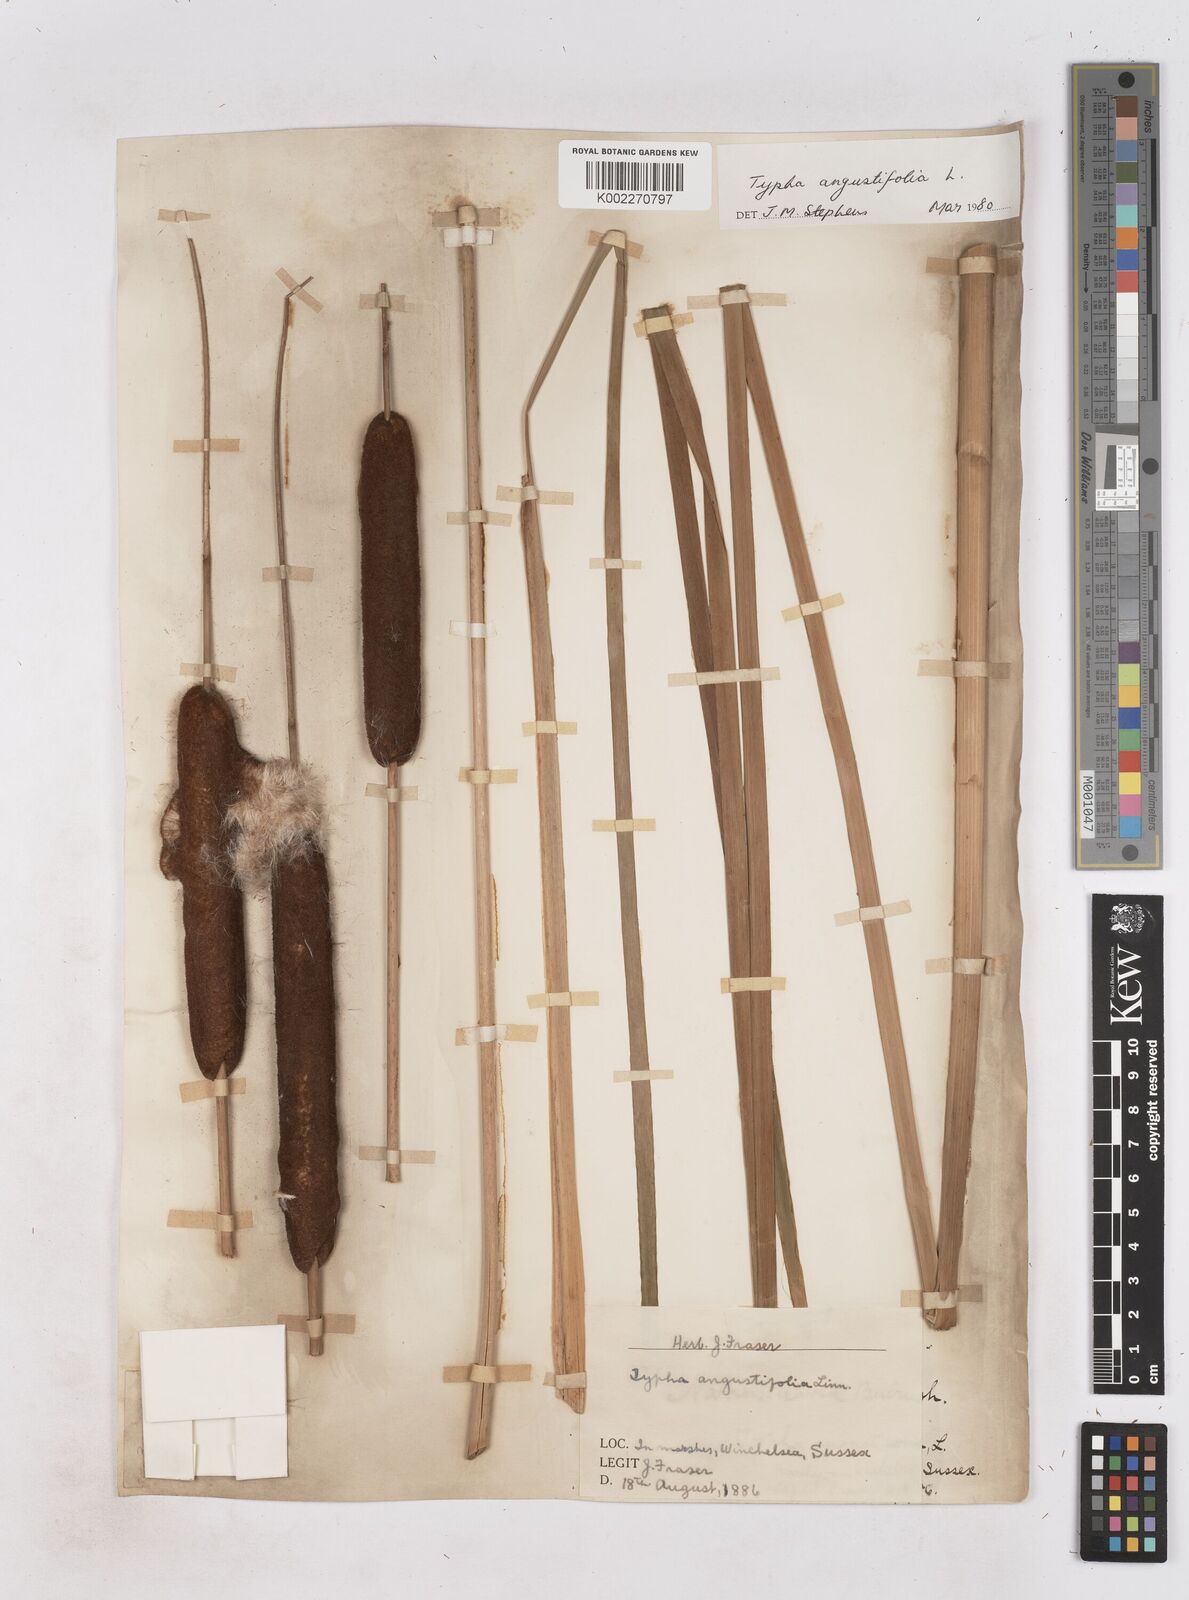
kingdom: Plantae
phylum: Tracheophyta
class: Liliopsida
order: Poales
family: Typhaceae
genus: Typha
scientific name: Typha angustifolia
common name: Lesser bulrush
